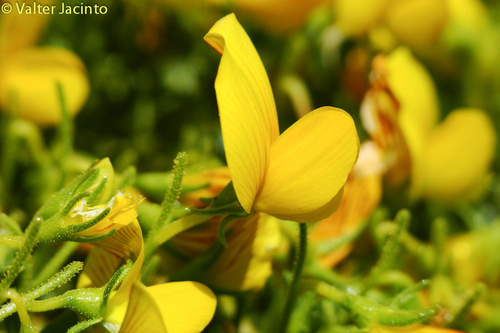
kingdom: Plantae
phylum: Tracheophyta
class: Magnoliopsida
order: Fabales
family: Fabaceae
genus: Ononis
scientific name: Ononis ramosissima
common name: Bush restharrow
